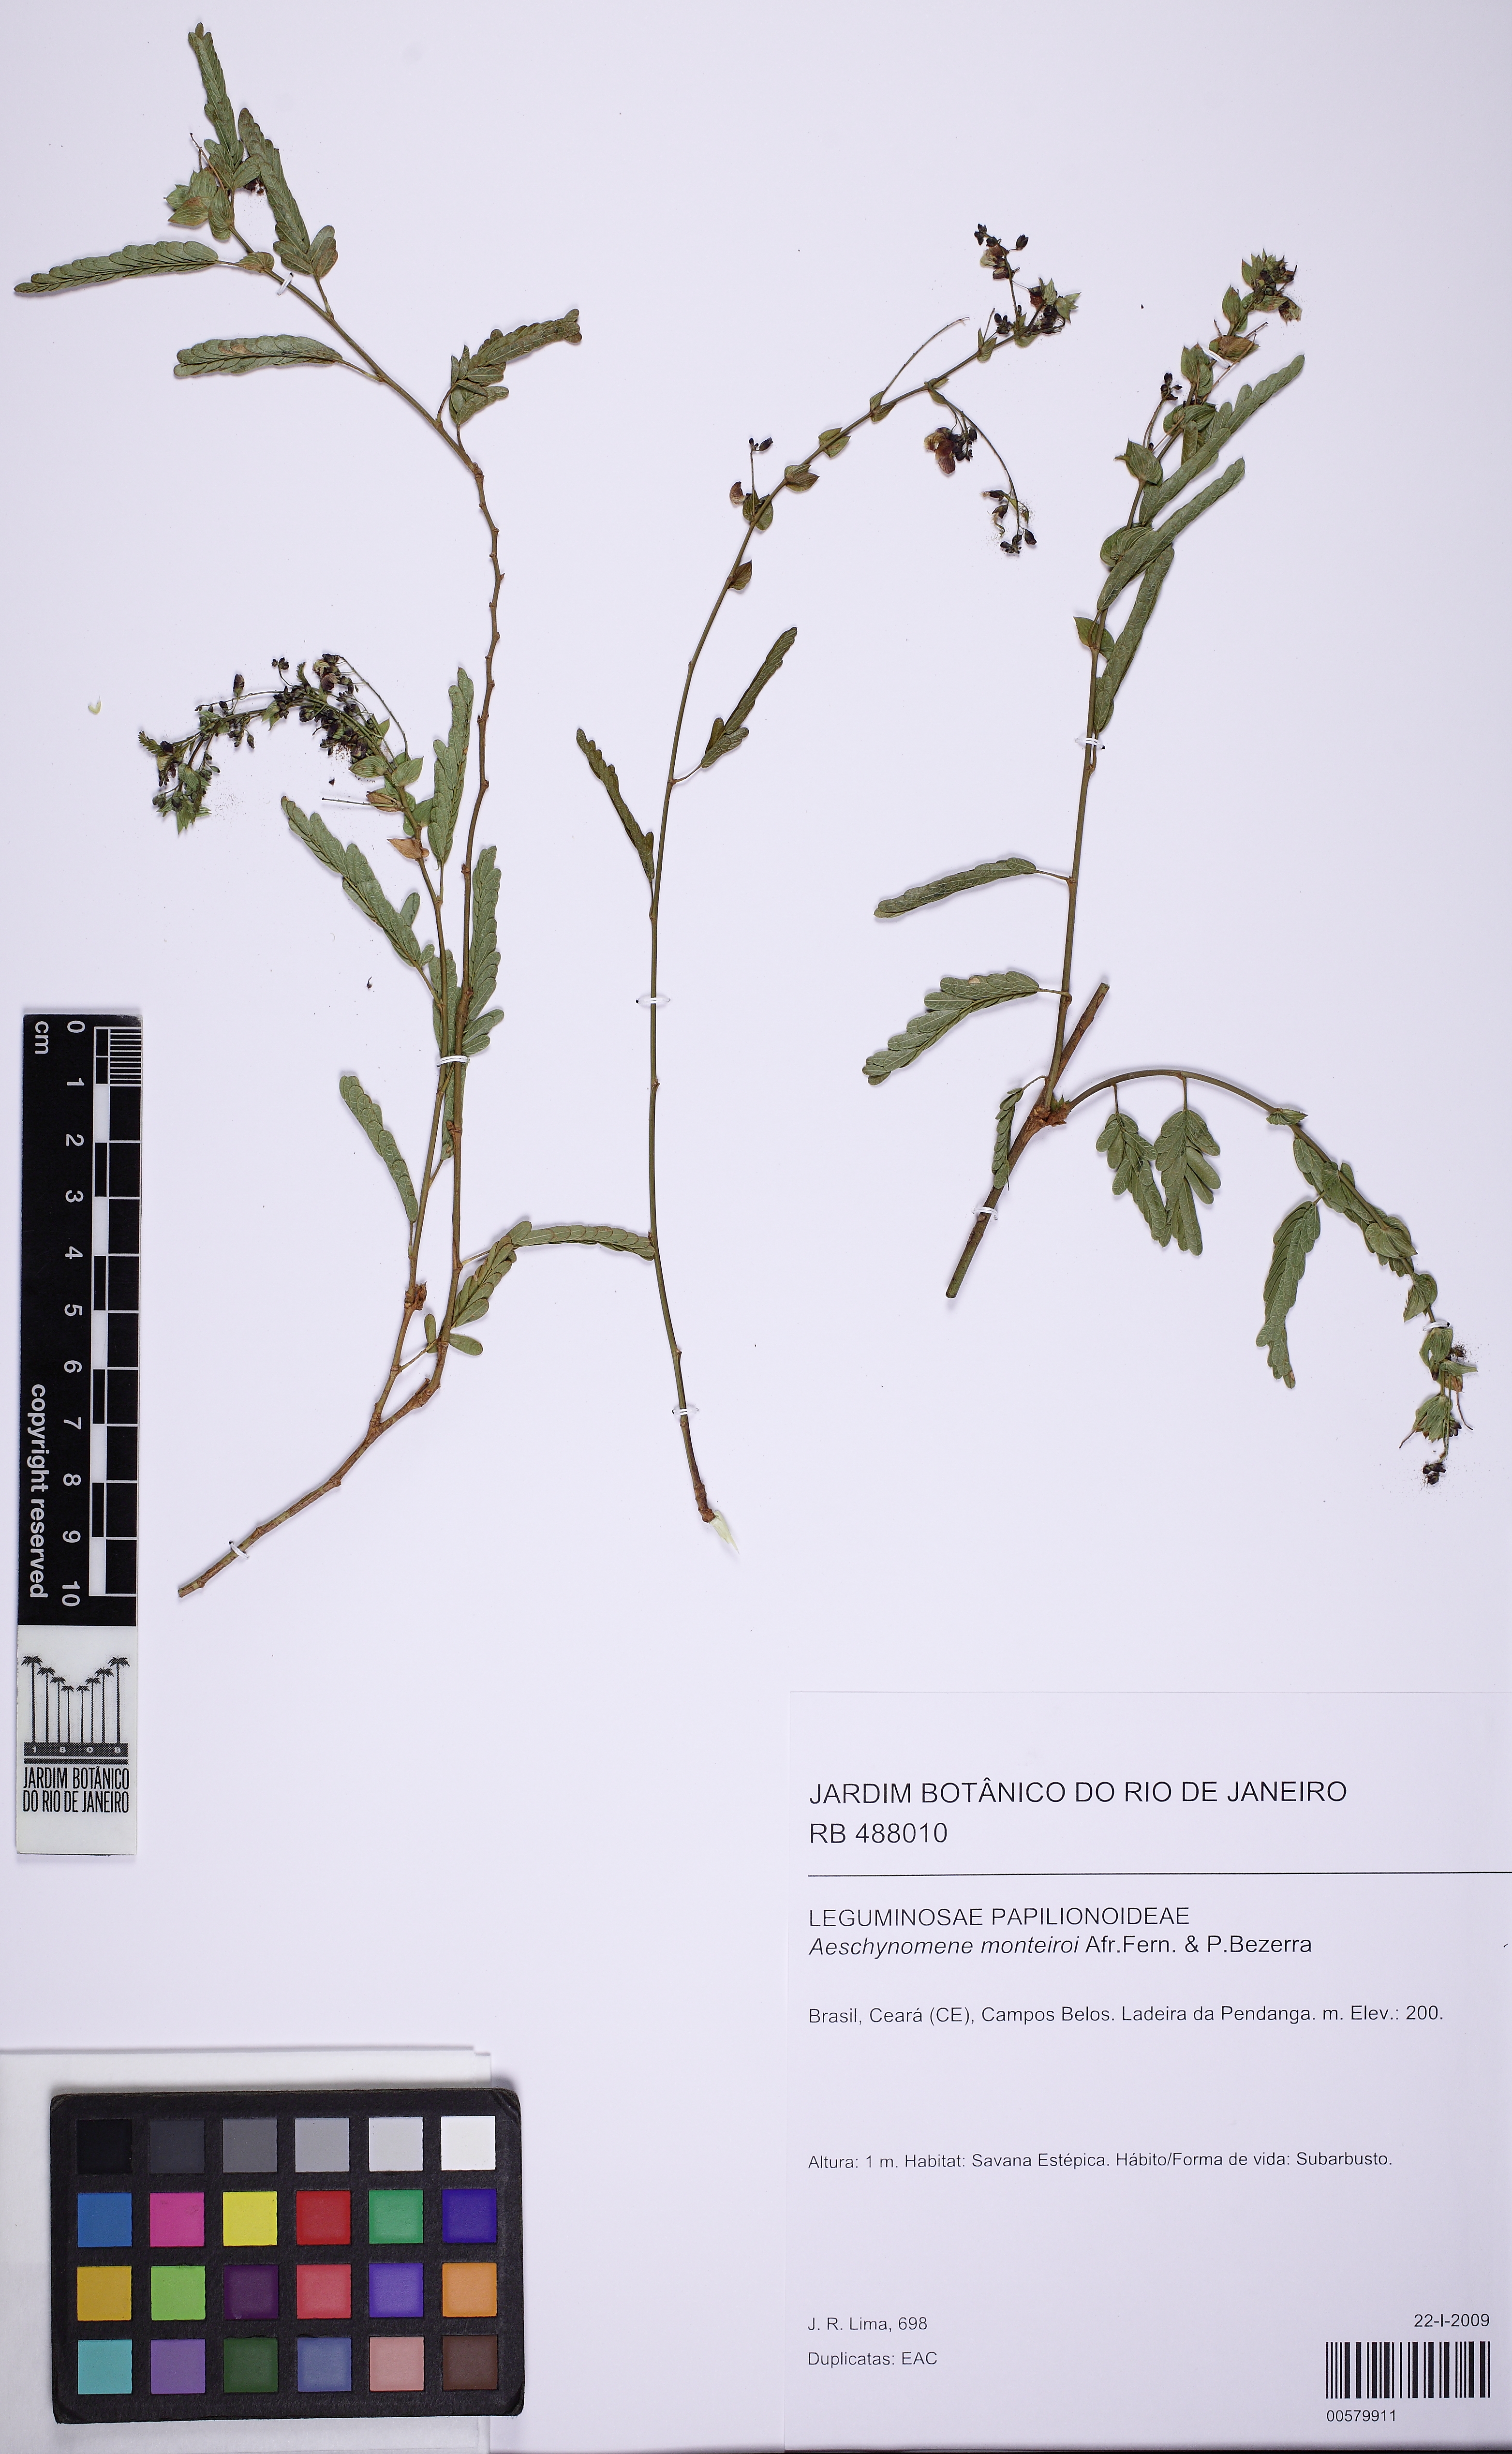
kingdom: Plantae
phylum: Tracheophyta
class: Magnoliopsida
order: Fabales
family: Fabaceae
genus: Ctenodon
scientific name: Ctenodon monteiroi
